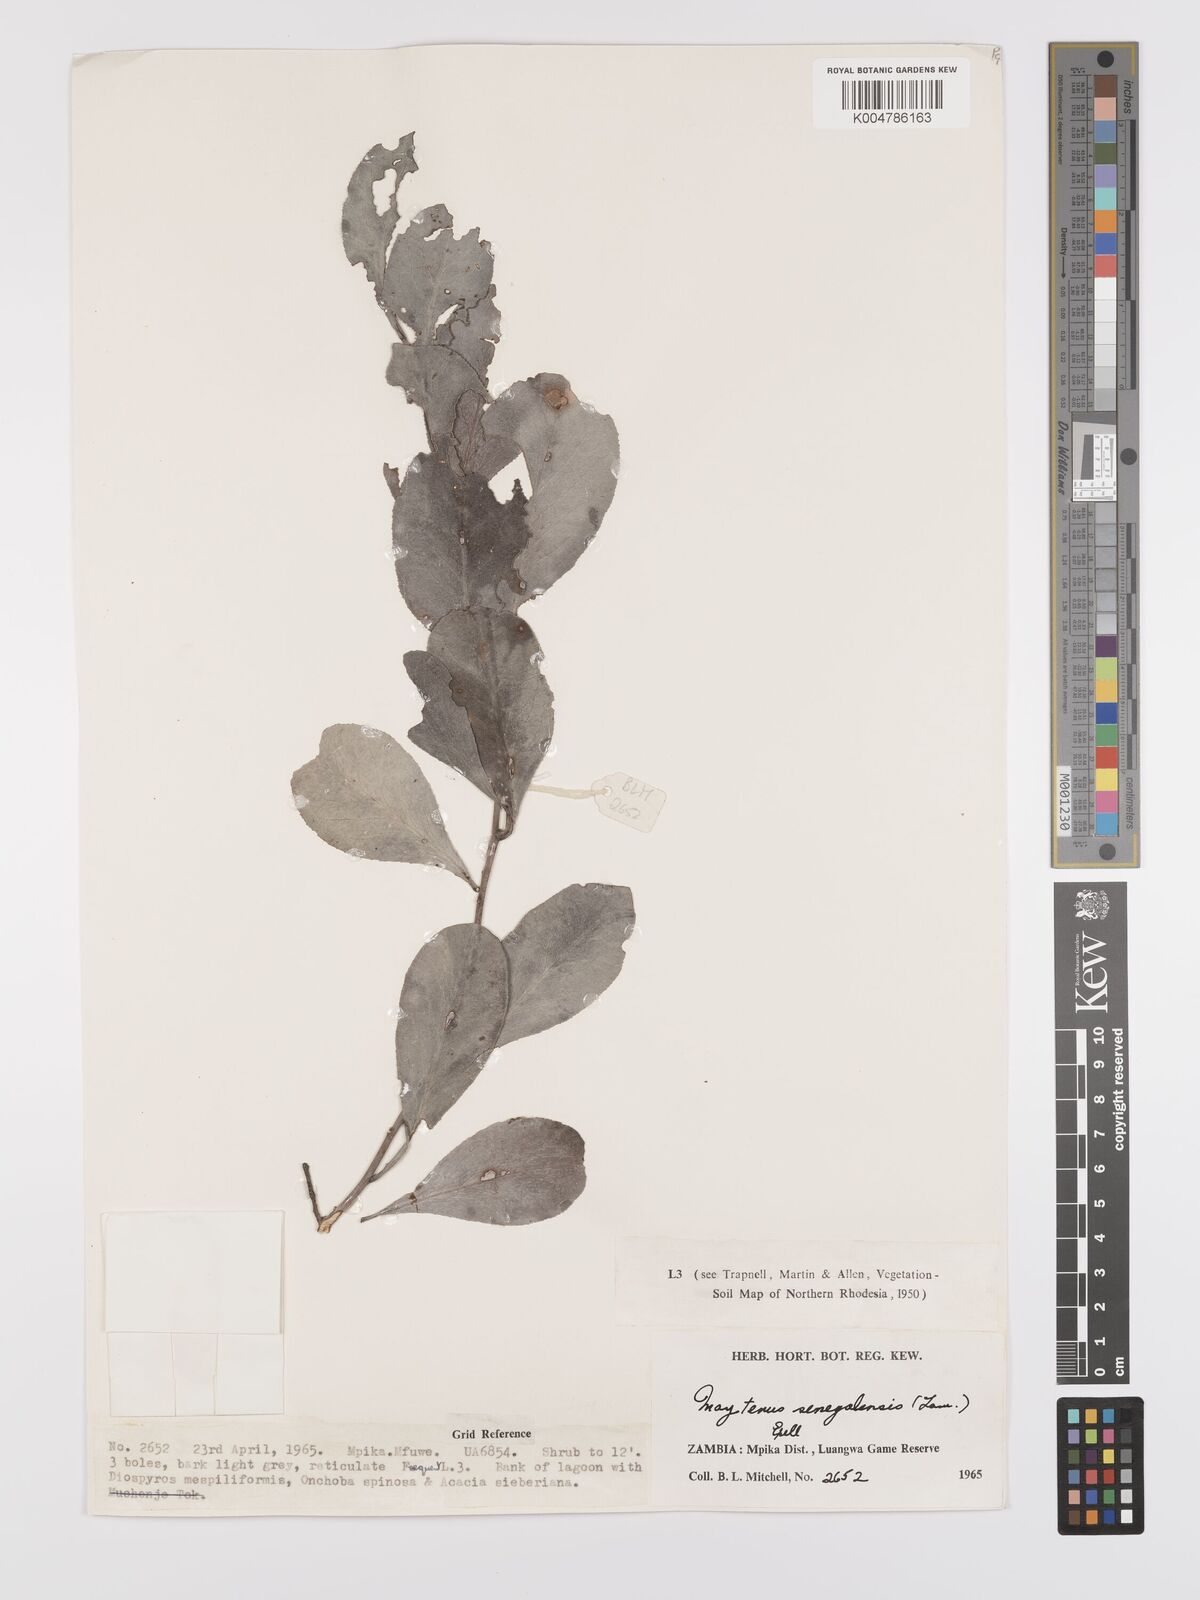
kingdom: Plantae
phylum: Tracheophyta
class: Magnoliopsida
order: Celastrales
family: Celastraceae
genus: Gymnosporia
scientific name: Gymnosporia senegalensis
